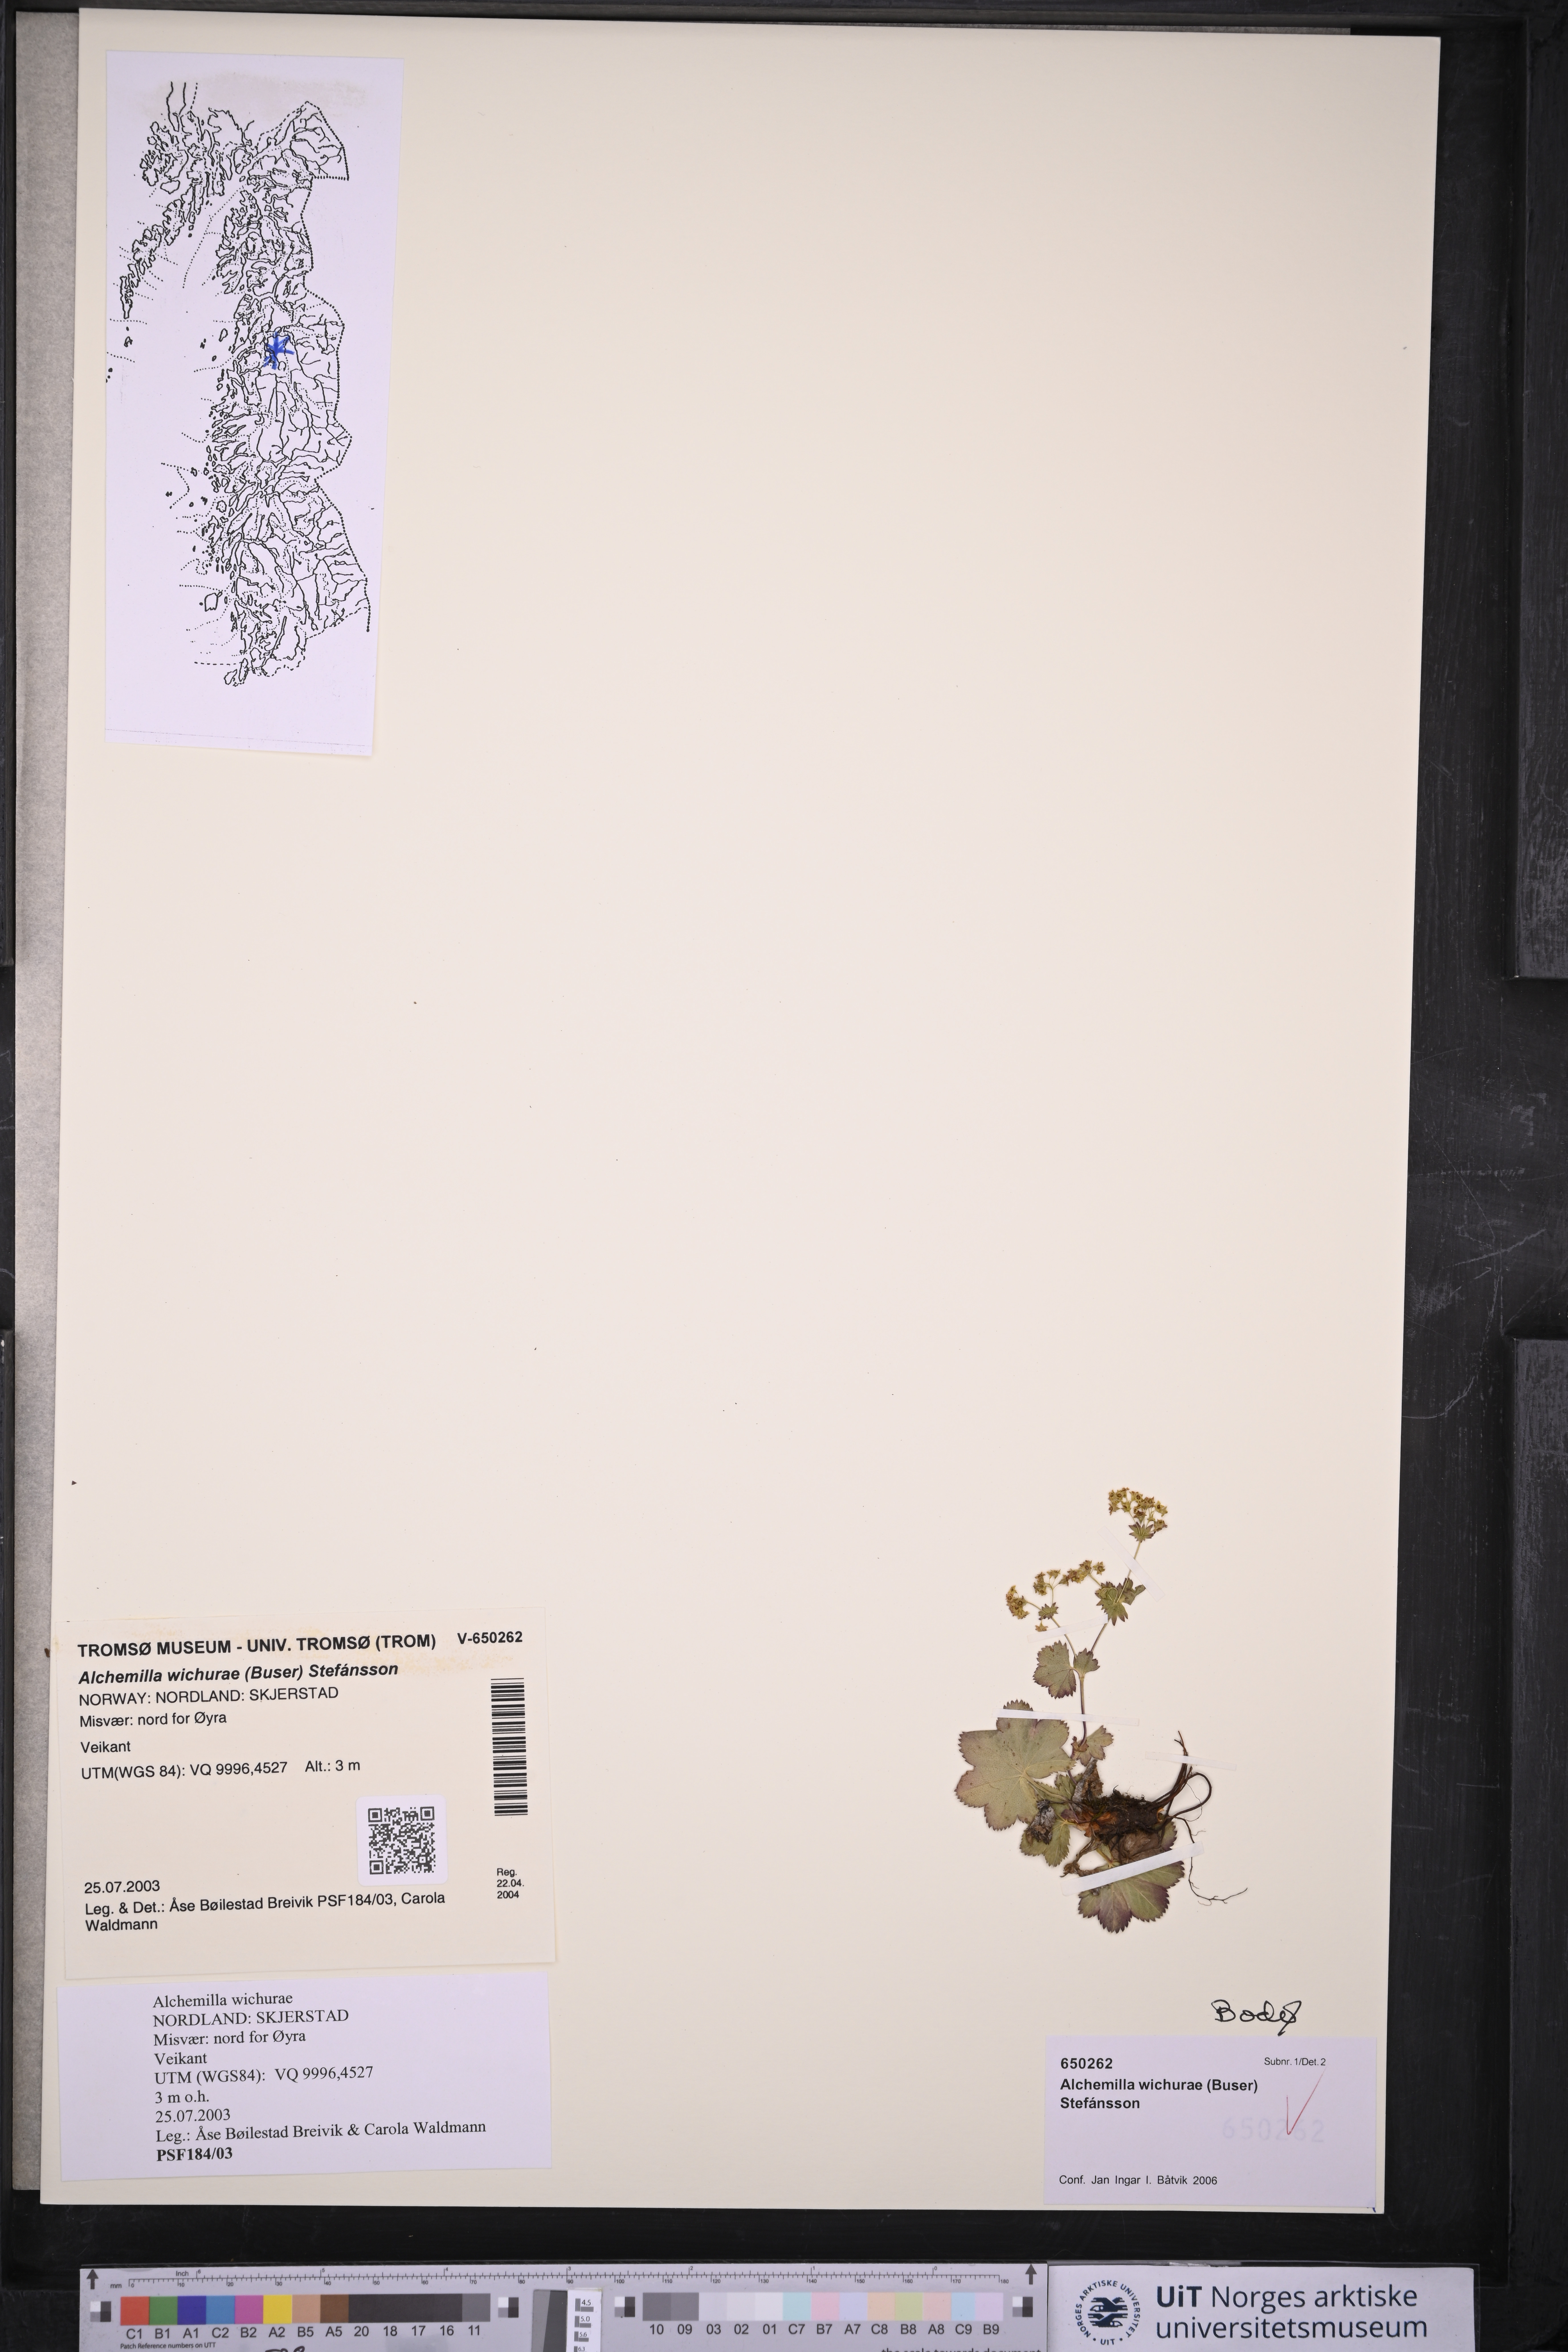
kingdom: Plantae
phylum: Tracheophyta
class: Magnoliopsida
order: Rosales
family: Rosaceae
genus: Alchemilla
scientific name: Alchemilla wichurae
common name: Rock lady's mantle
